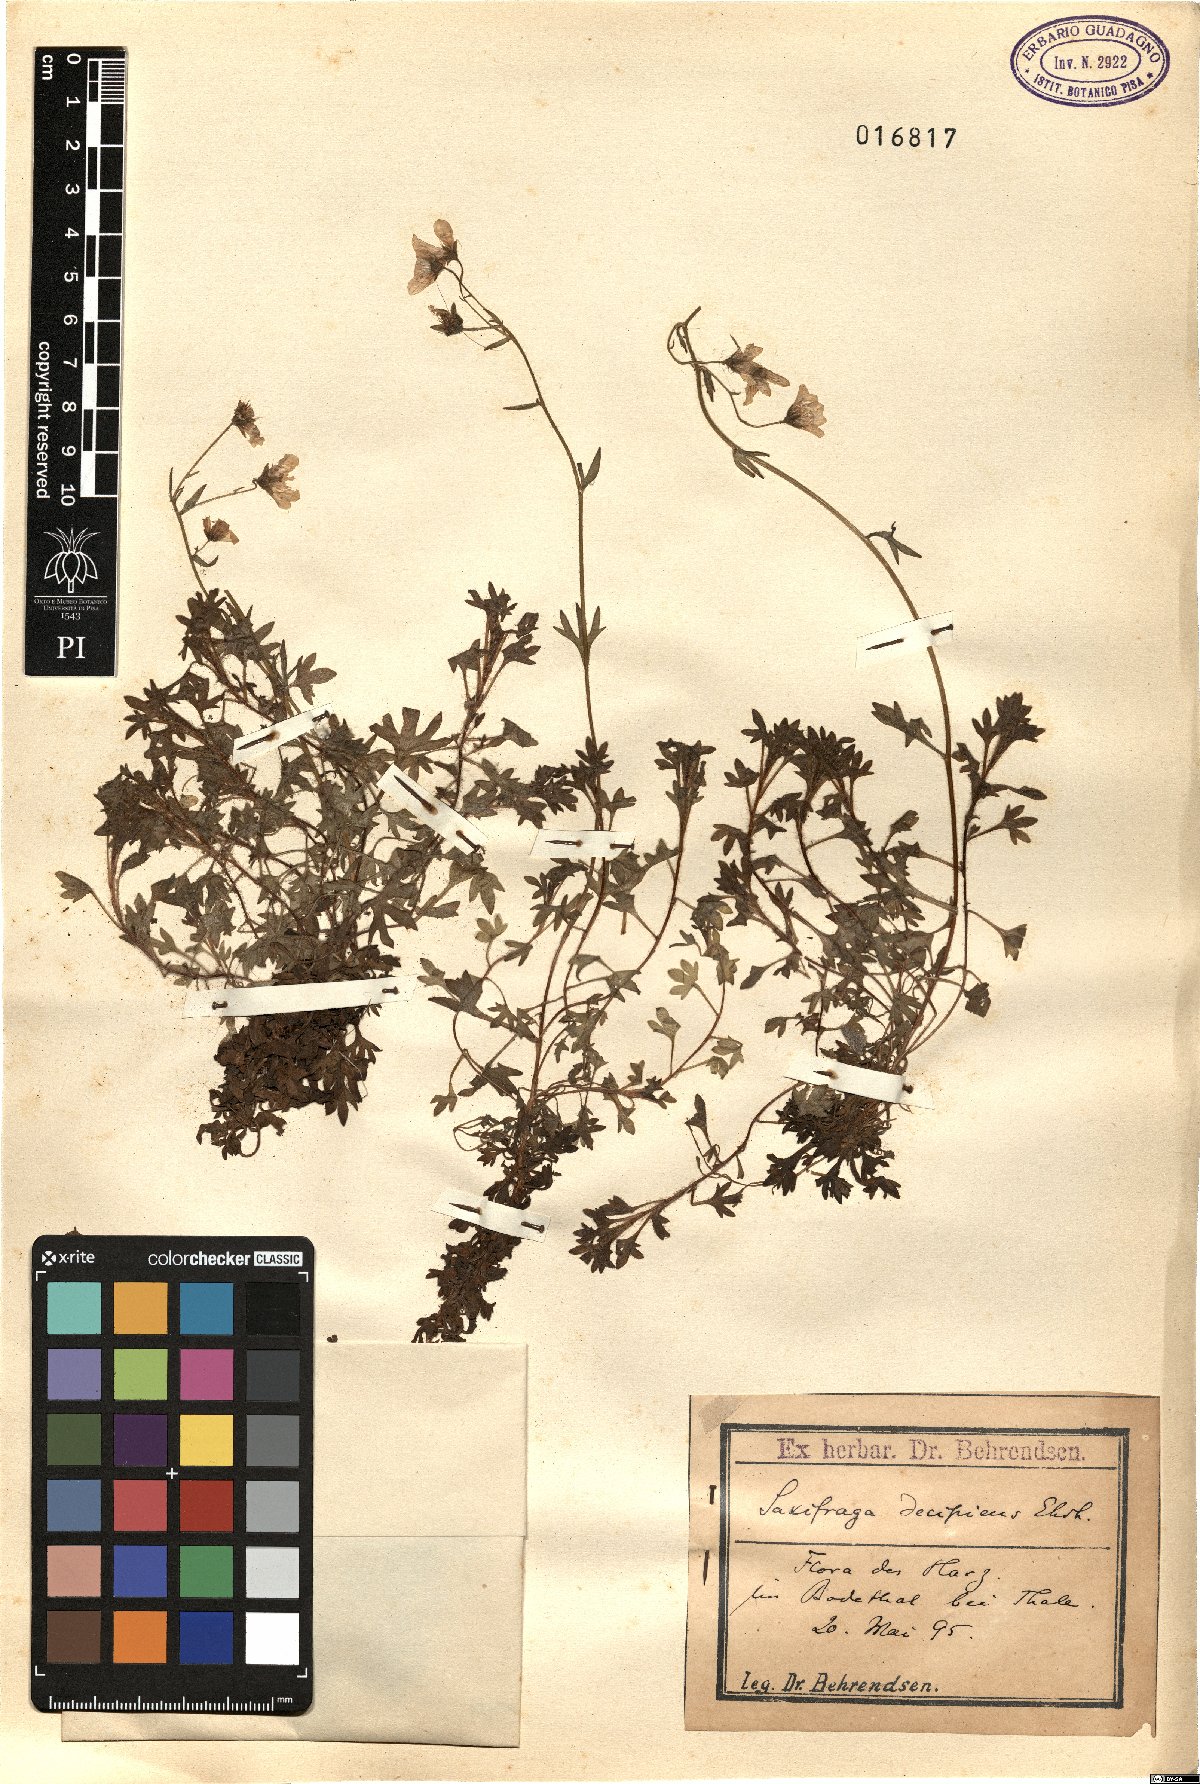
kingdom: Plantae
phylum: Tracheophyta
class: Magnoliopsida
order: Saxifragales
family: Saxifragaceae
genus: Saxifraga
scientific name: Saxifraga rosacea
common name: Irish saxifrage
